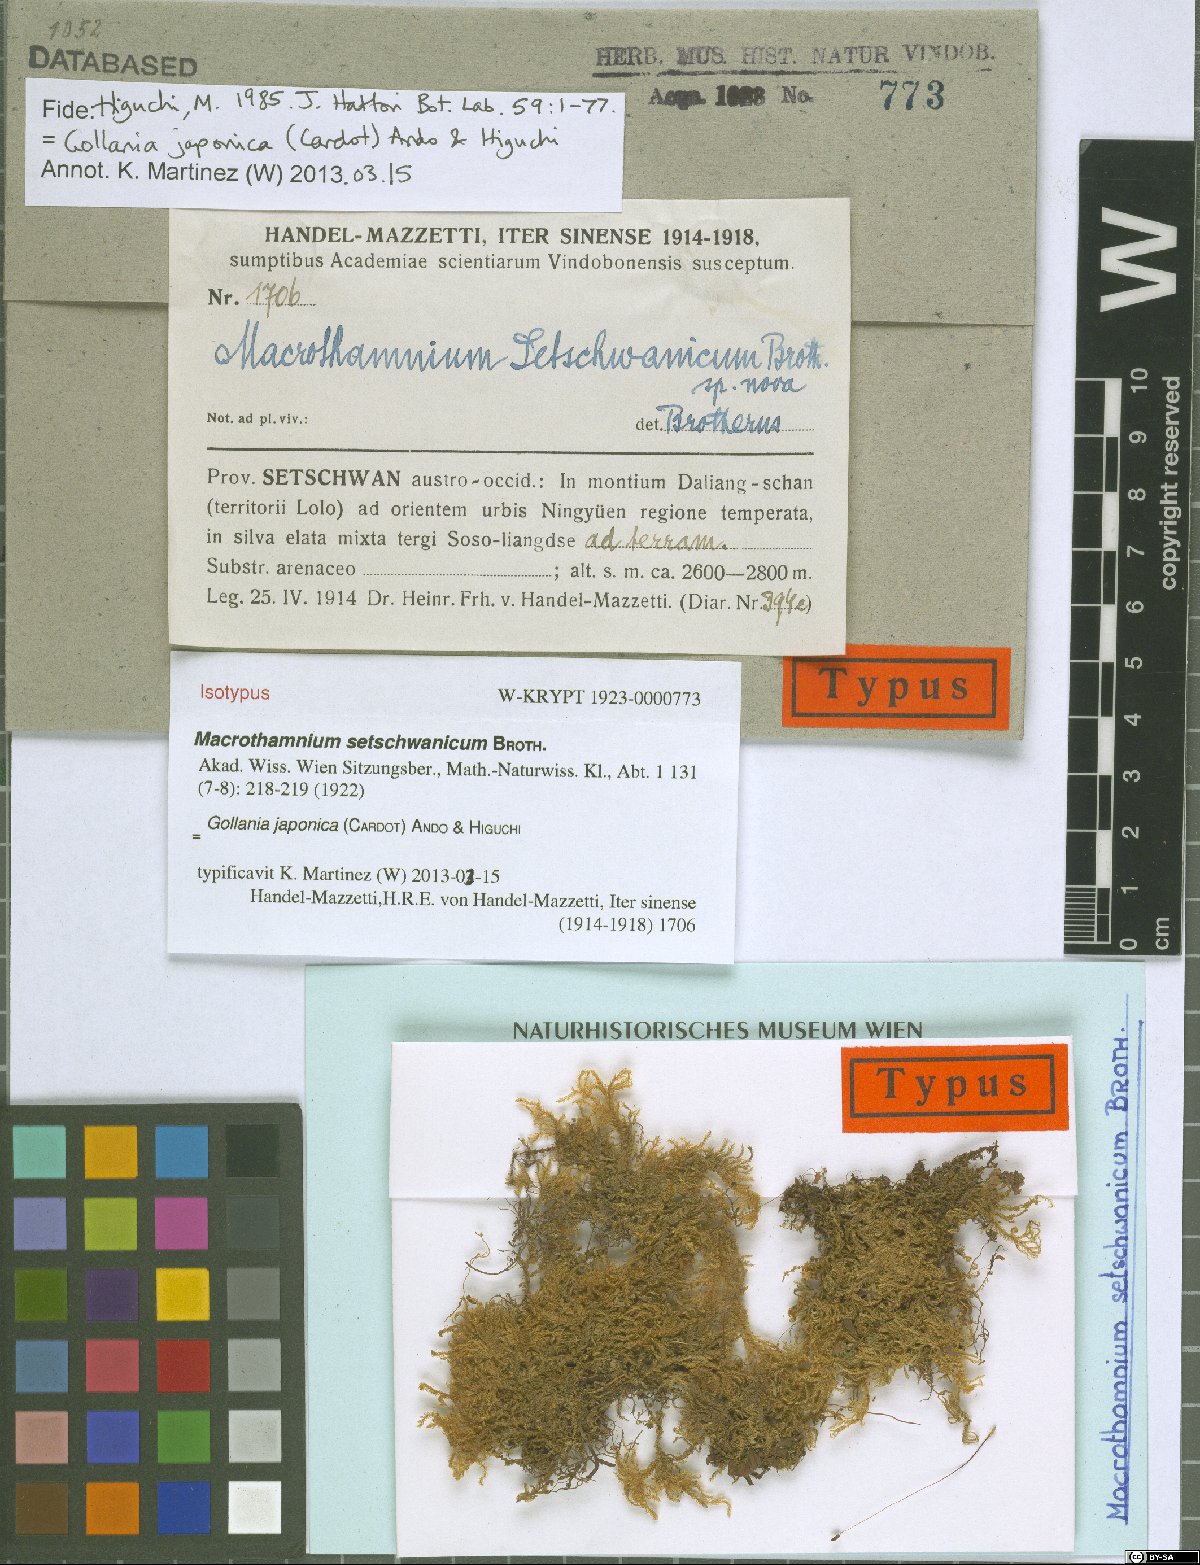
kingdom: Plantae
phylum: Bryophyta
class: Bryopsida
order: Hypnales
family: Hypnaceae
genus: Gollania
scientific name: Gollania setschwanica
